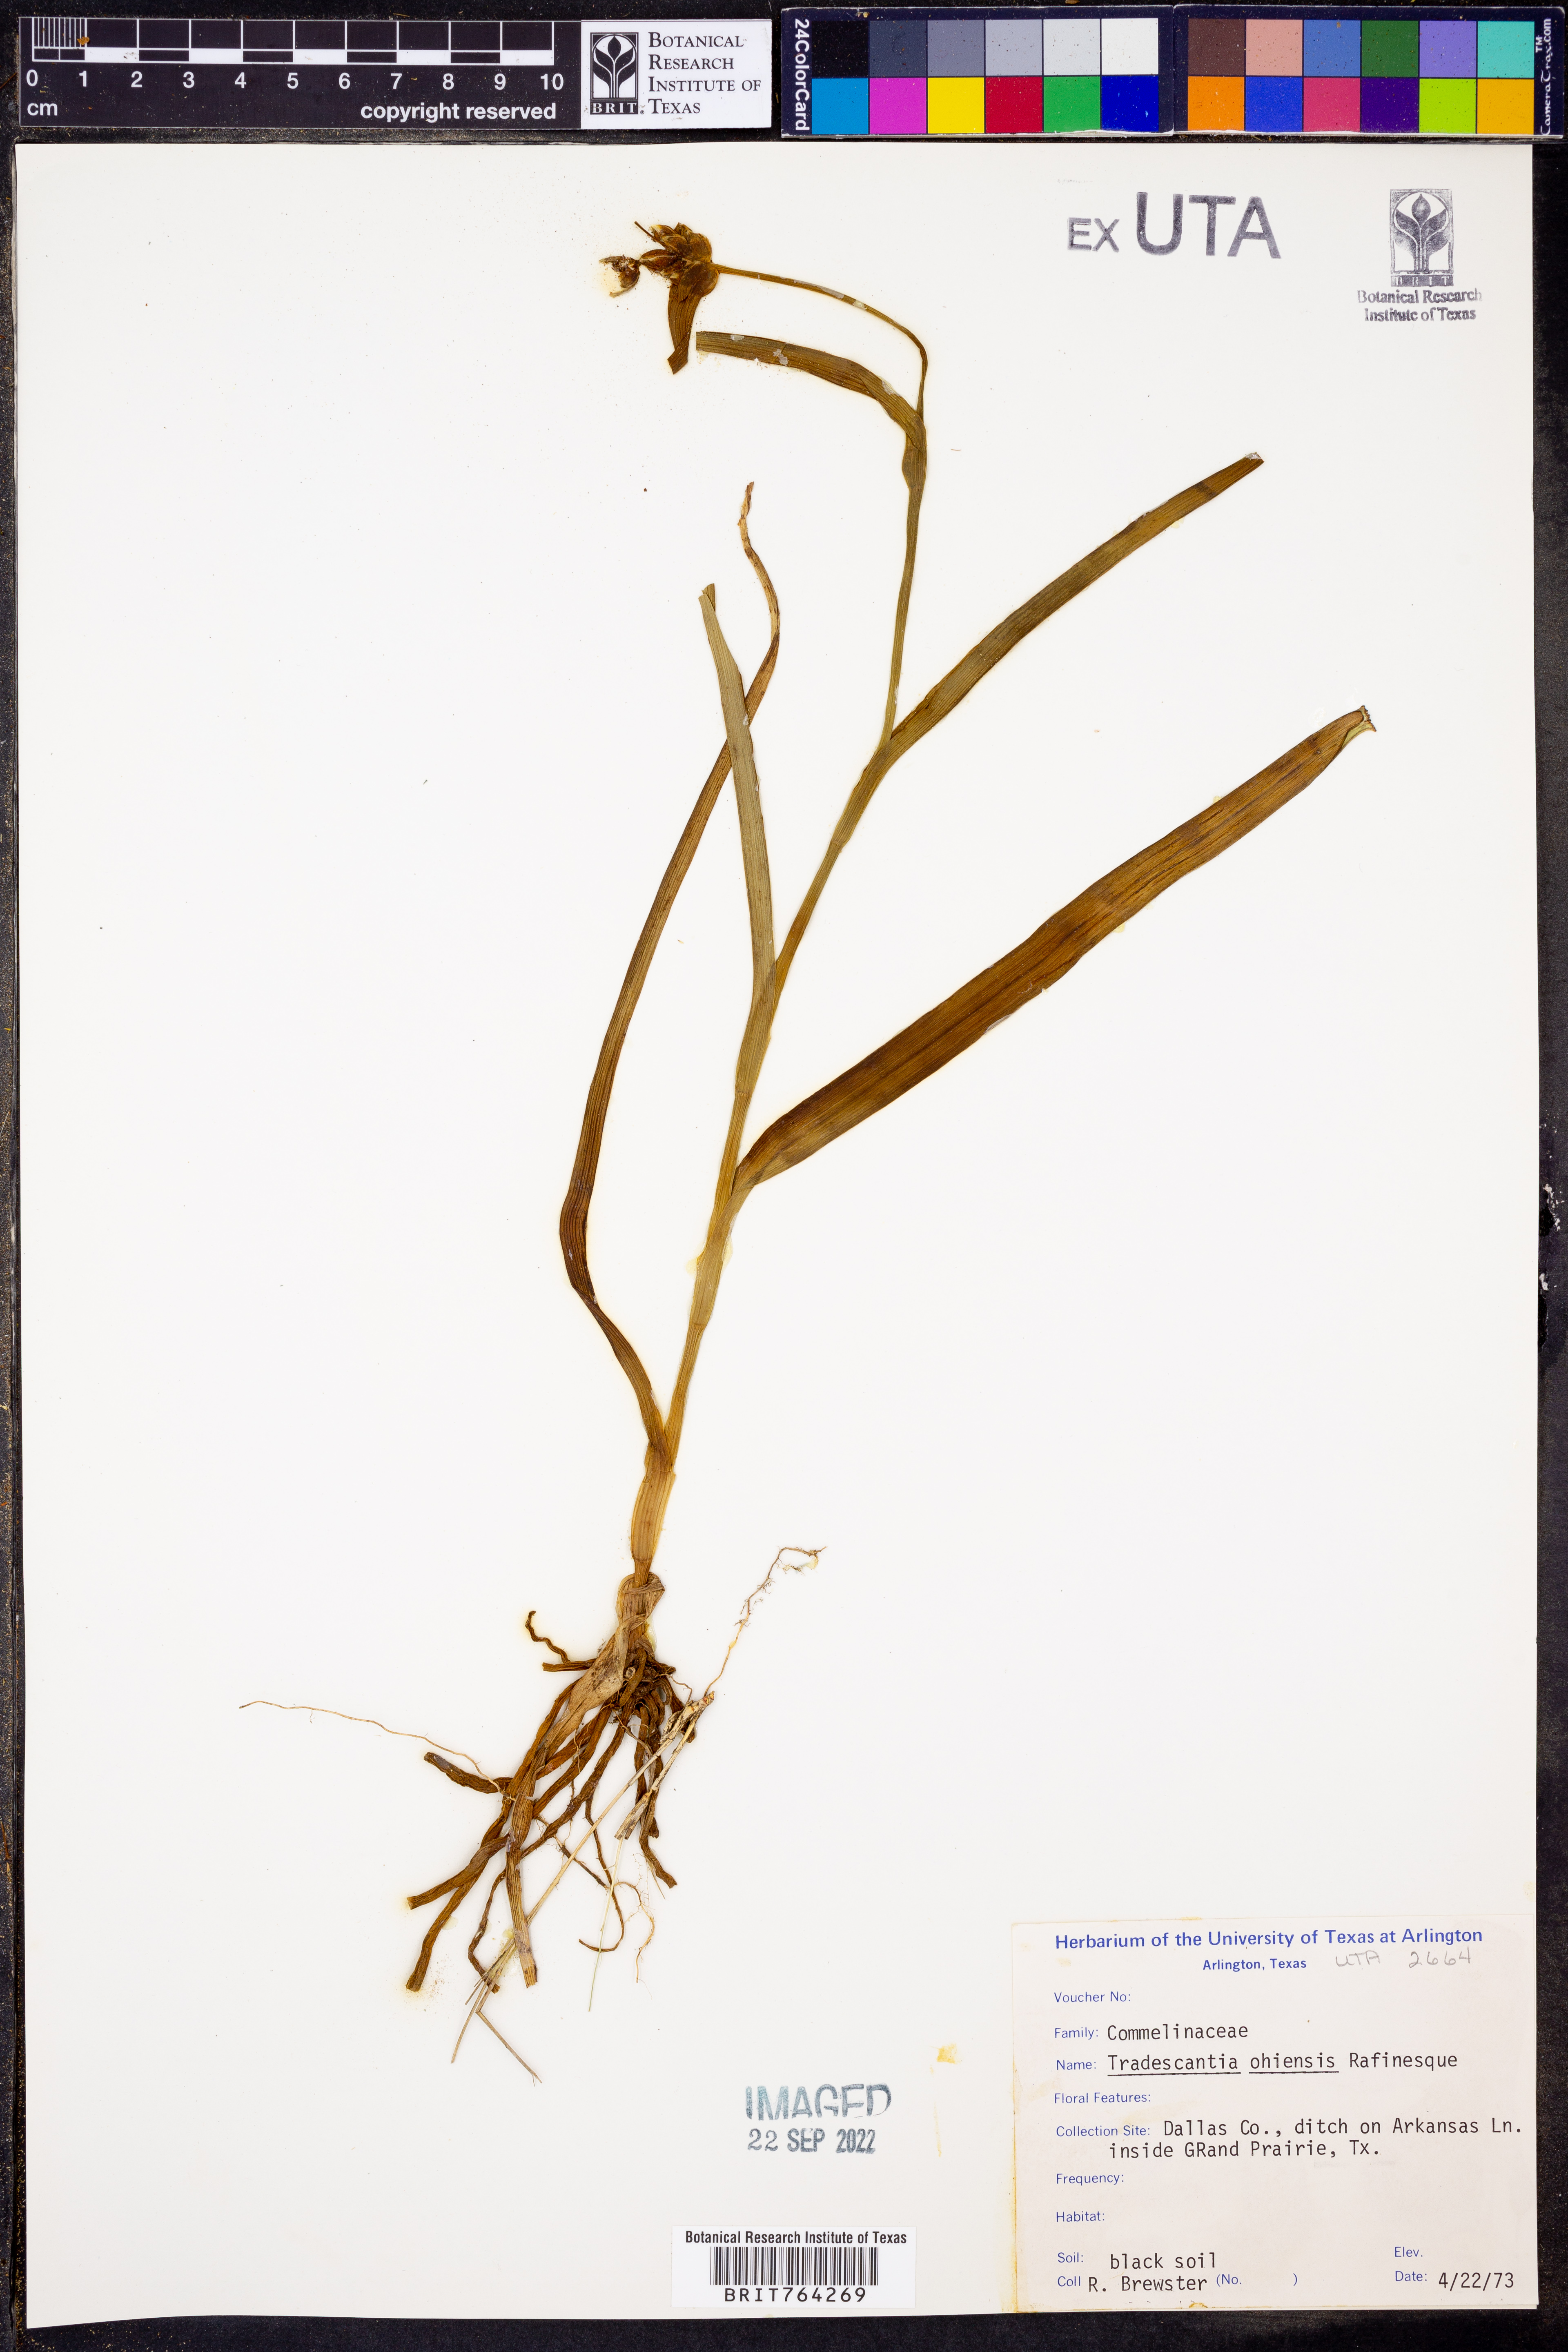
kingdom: Plantae
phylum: Tracheophyta
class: Liliopsida
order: Commelinales
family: Commelinaceae
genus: Tradescantia
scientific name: Tradescantia ohiensis
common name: Ohio spiderwort
